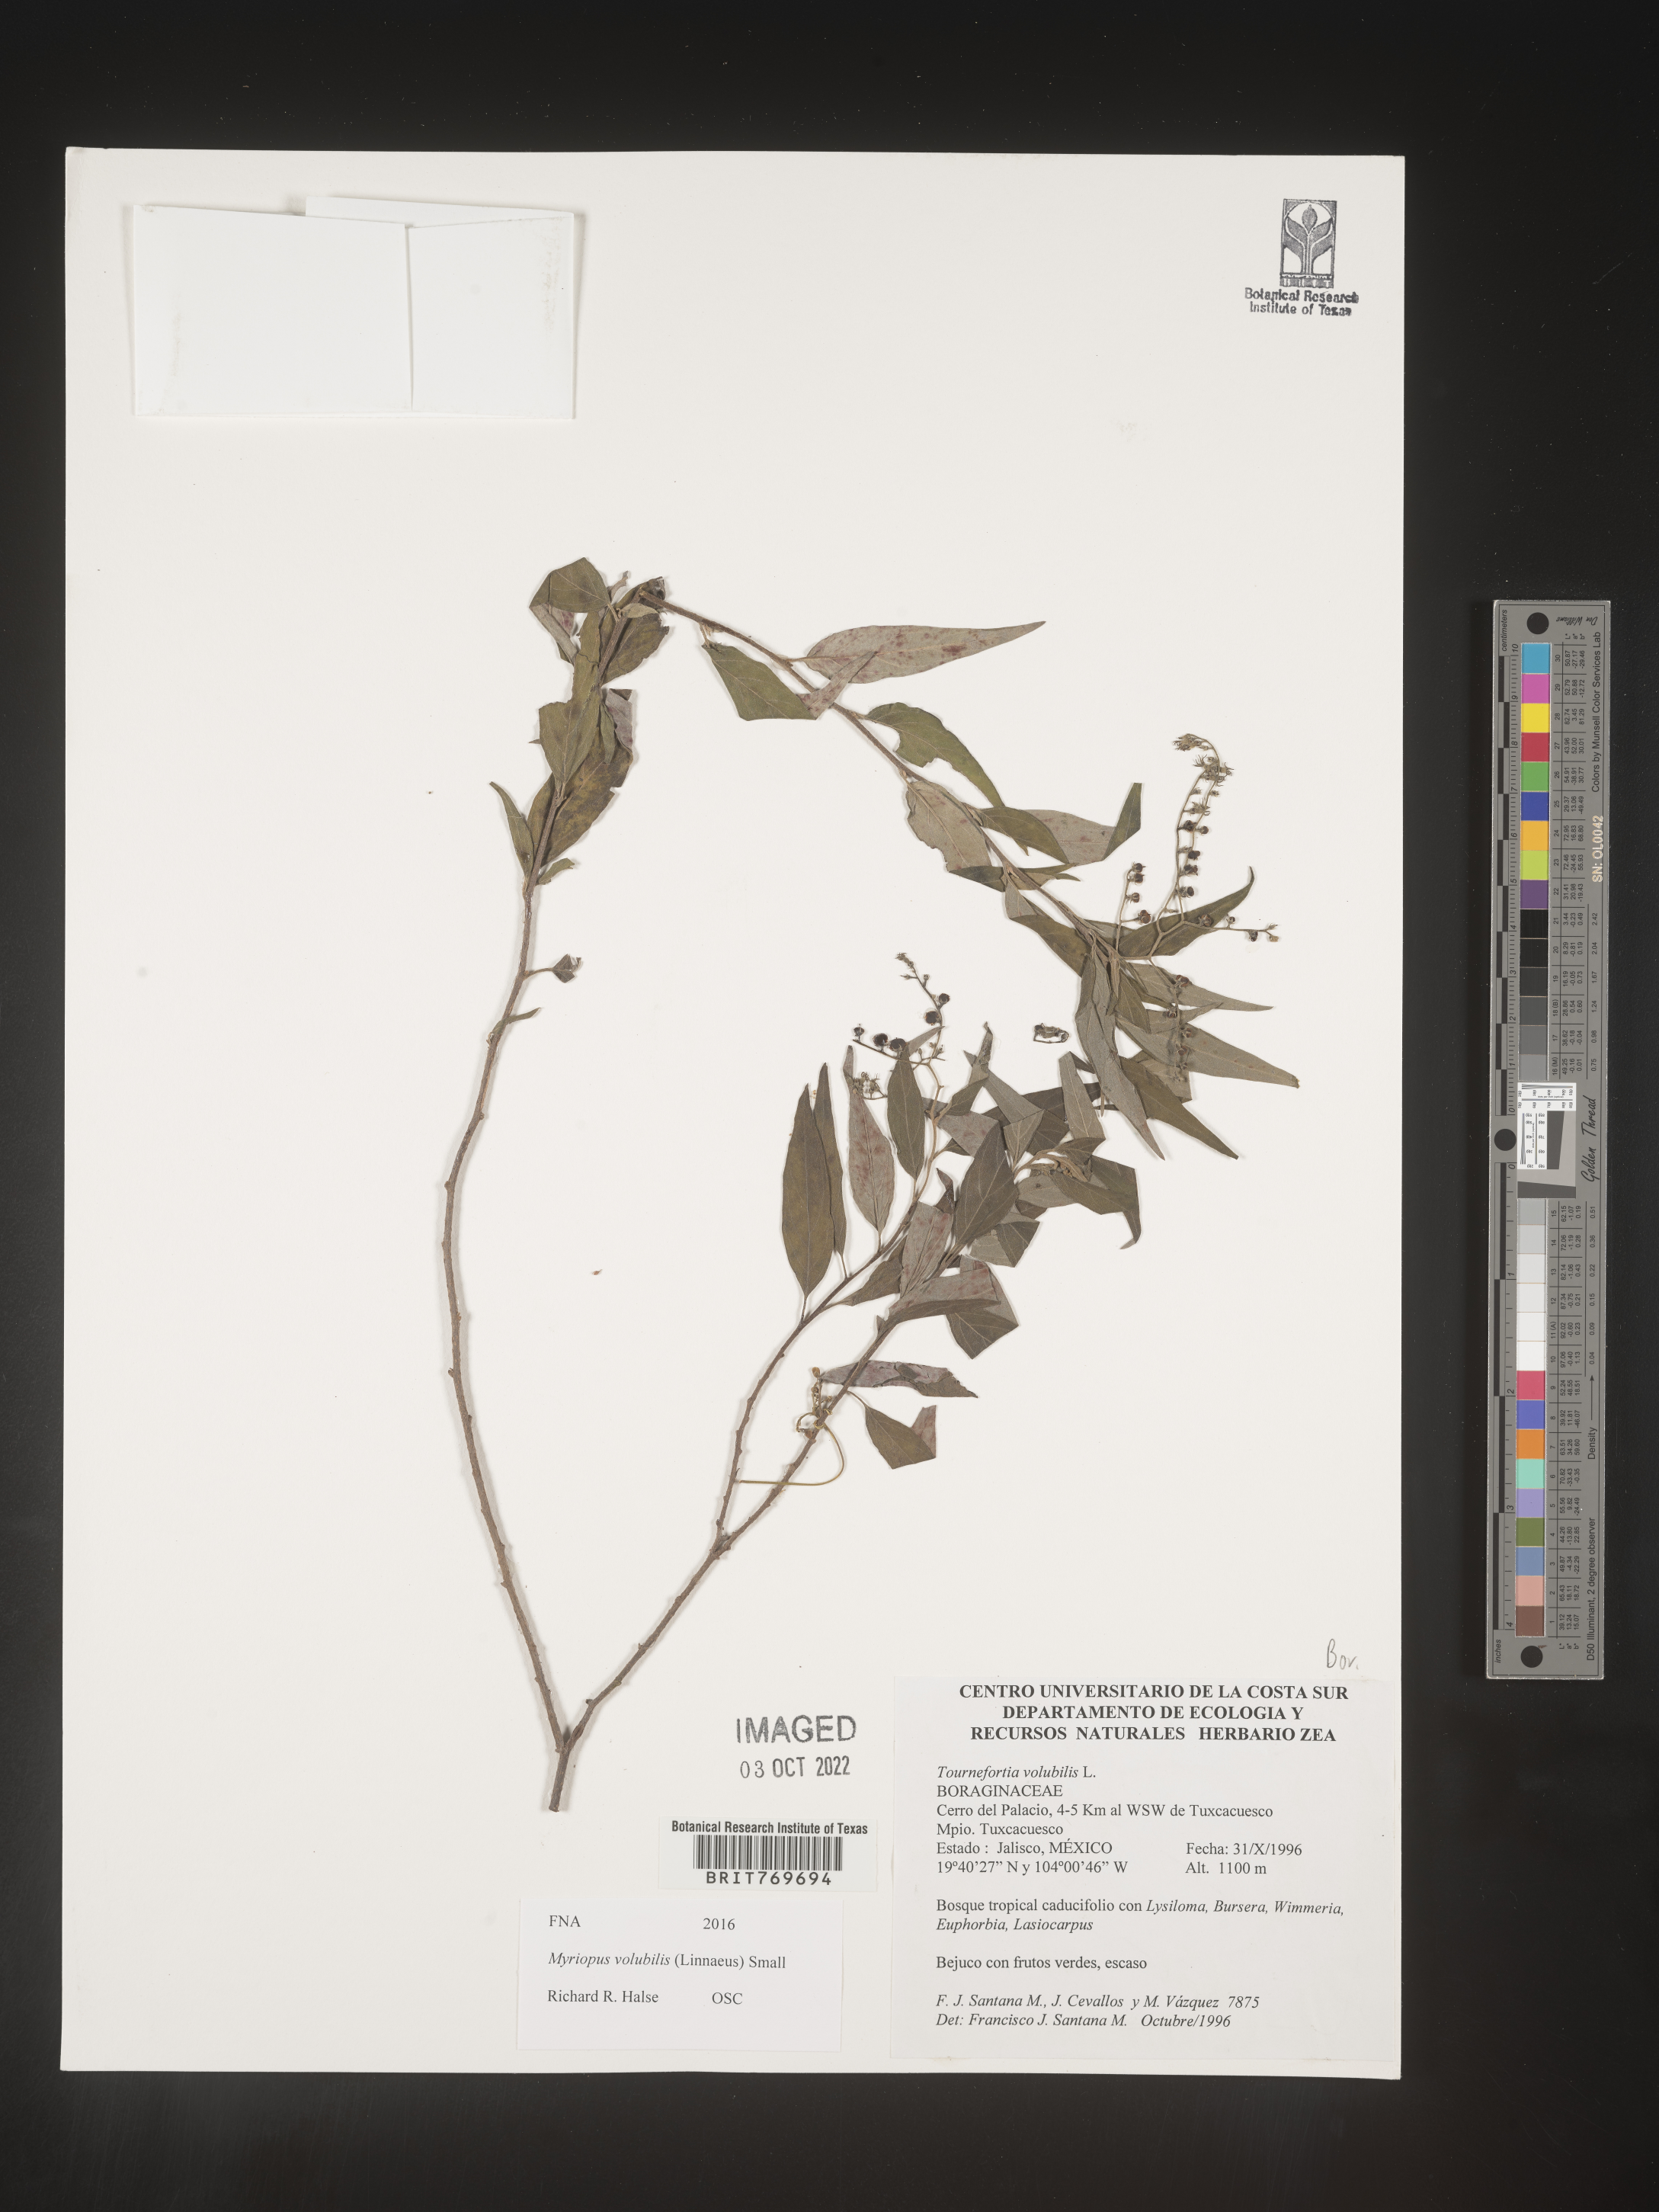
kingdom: Plantae
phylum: Tracheophyta
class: Magnoliopsida
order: Boraginales
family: Heliotropiaceae
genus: Myriopus
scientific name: Myriopus
